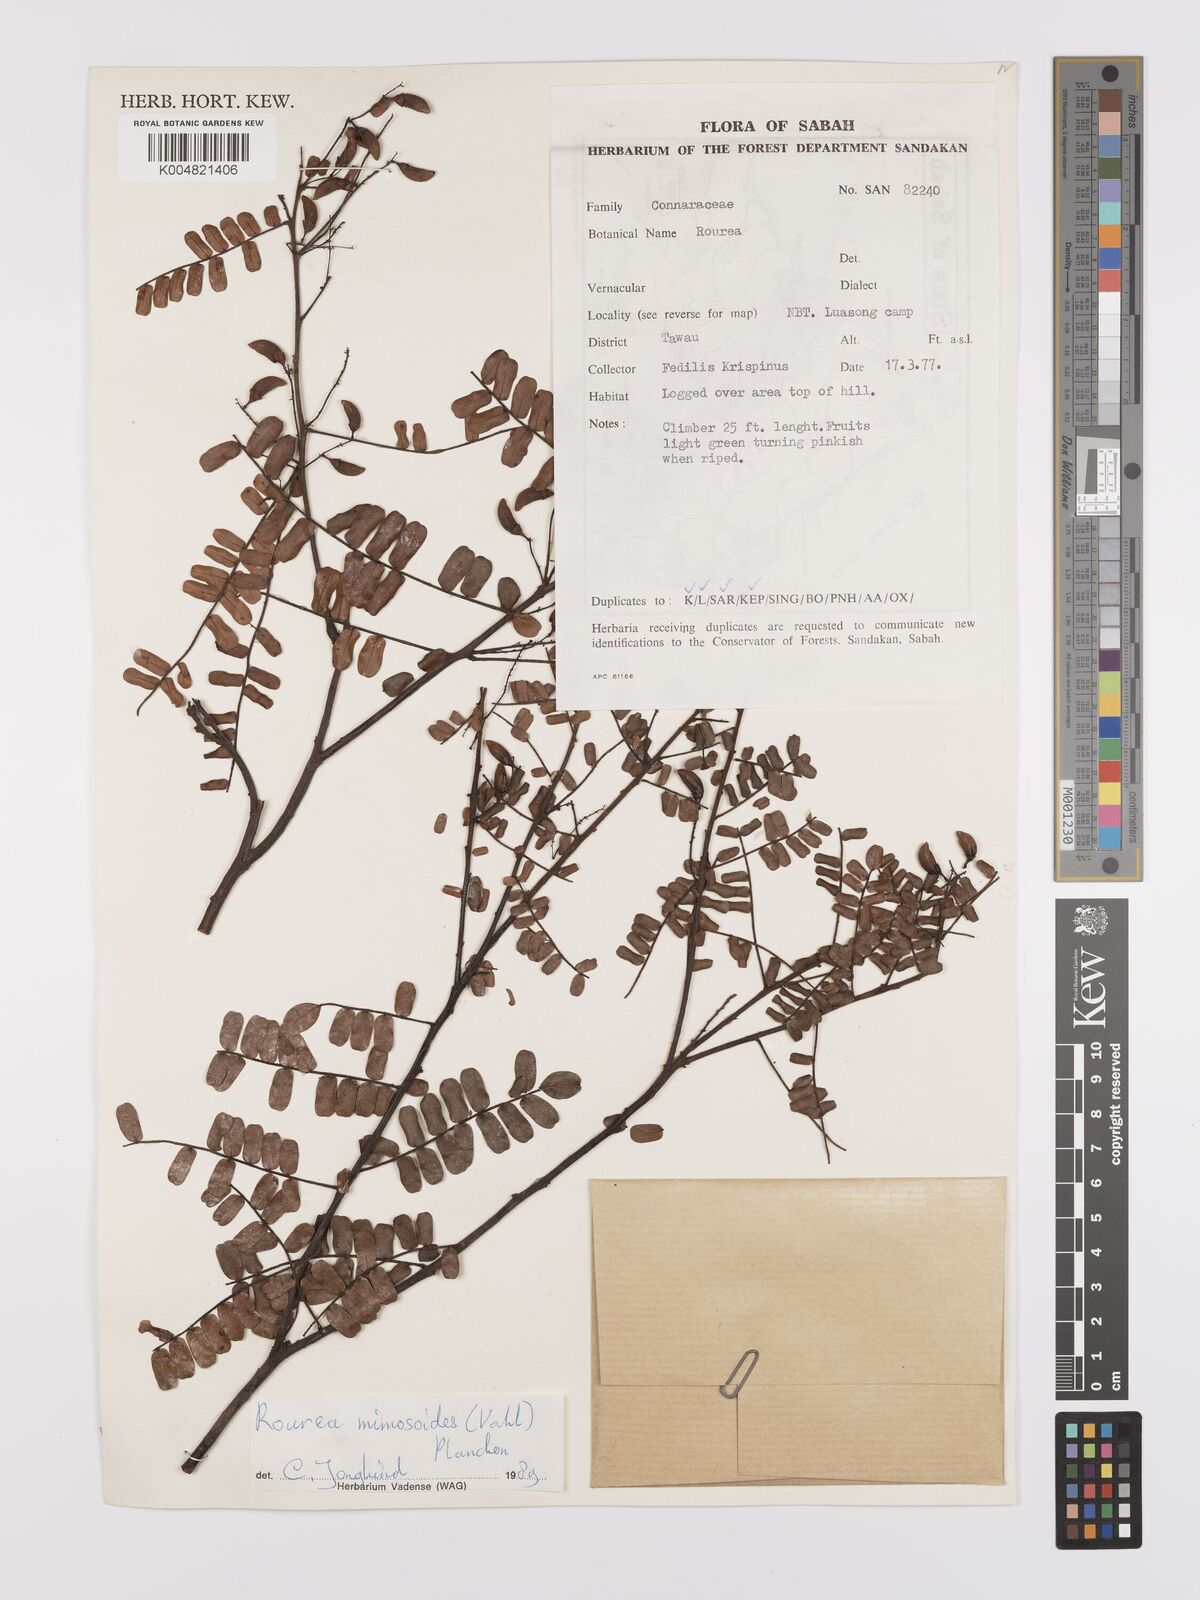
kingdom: Plantae
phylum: Tracheophyta
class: Magnoliopsida
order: Oxalidales
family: Connaraceae
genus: Rourea
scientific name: Rourea mimosoides
